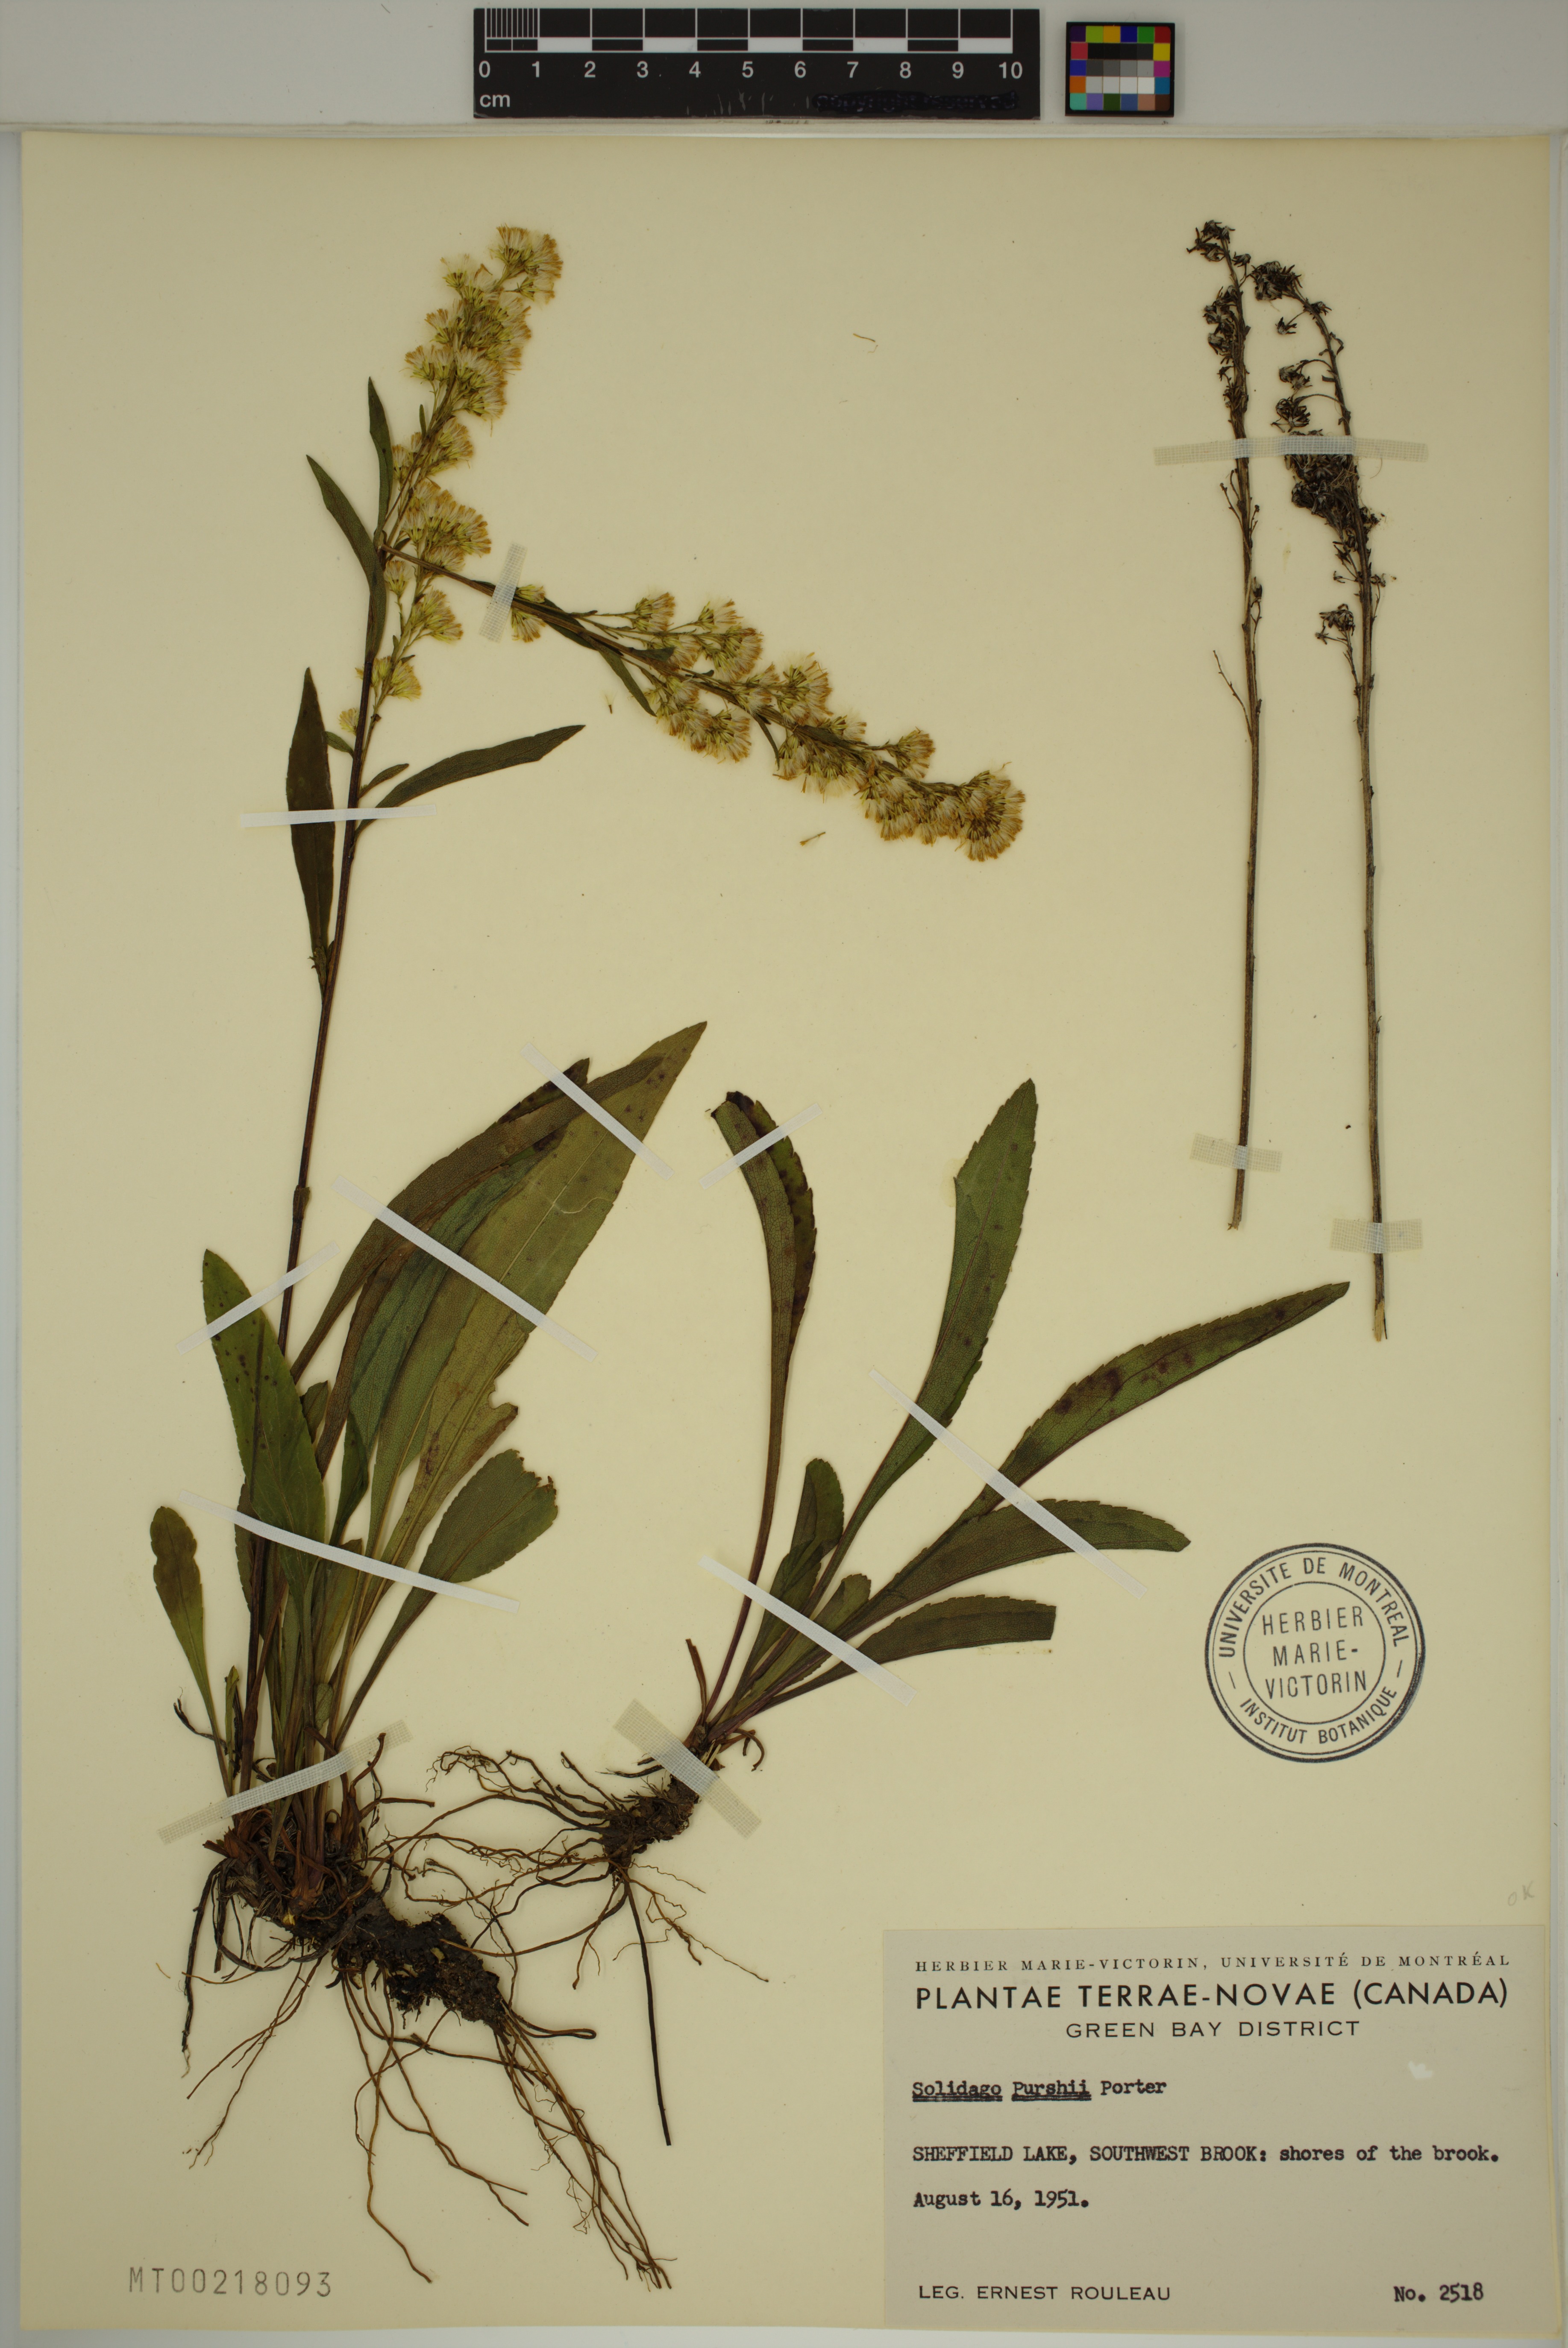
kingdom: Plantae
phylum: Tracheophyta
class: Magnoliopsida
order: Asterales
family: Asteraceae
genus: Solidago
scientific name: Solidago uliginosa
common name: Bog goldenrod
